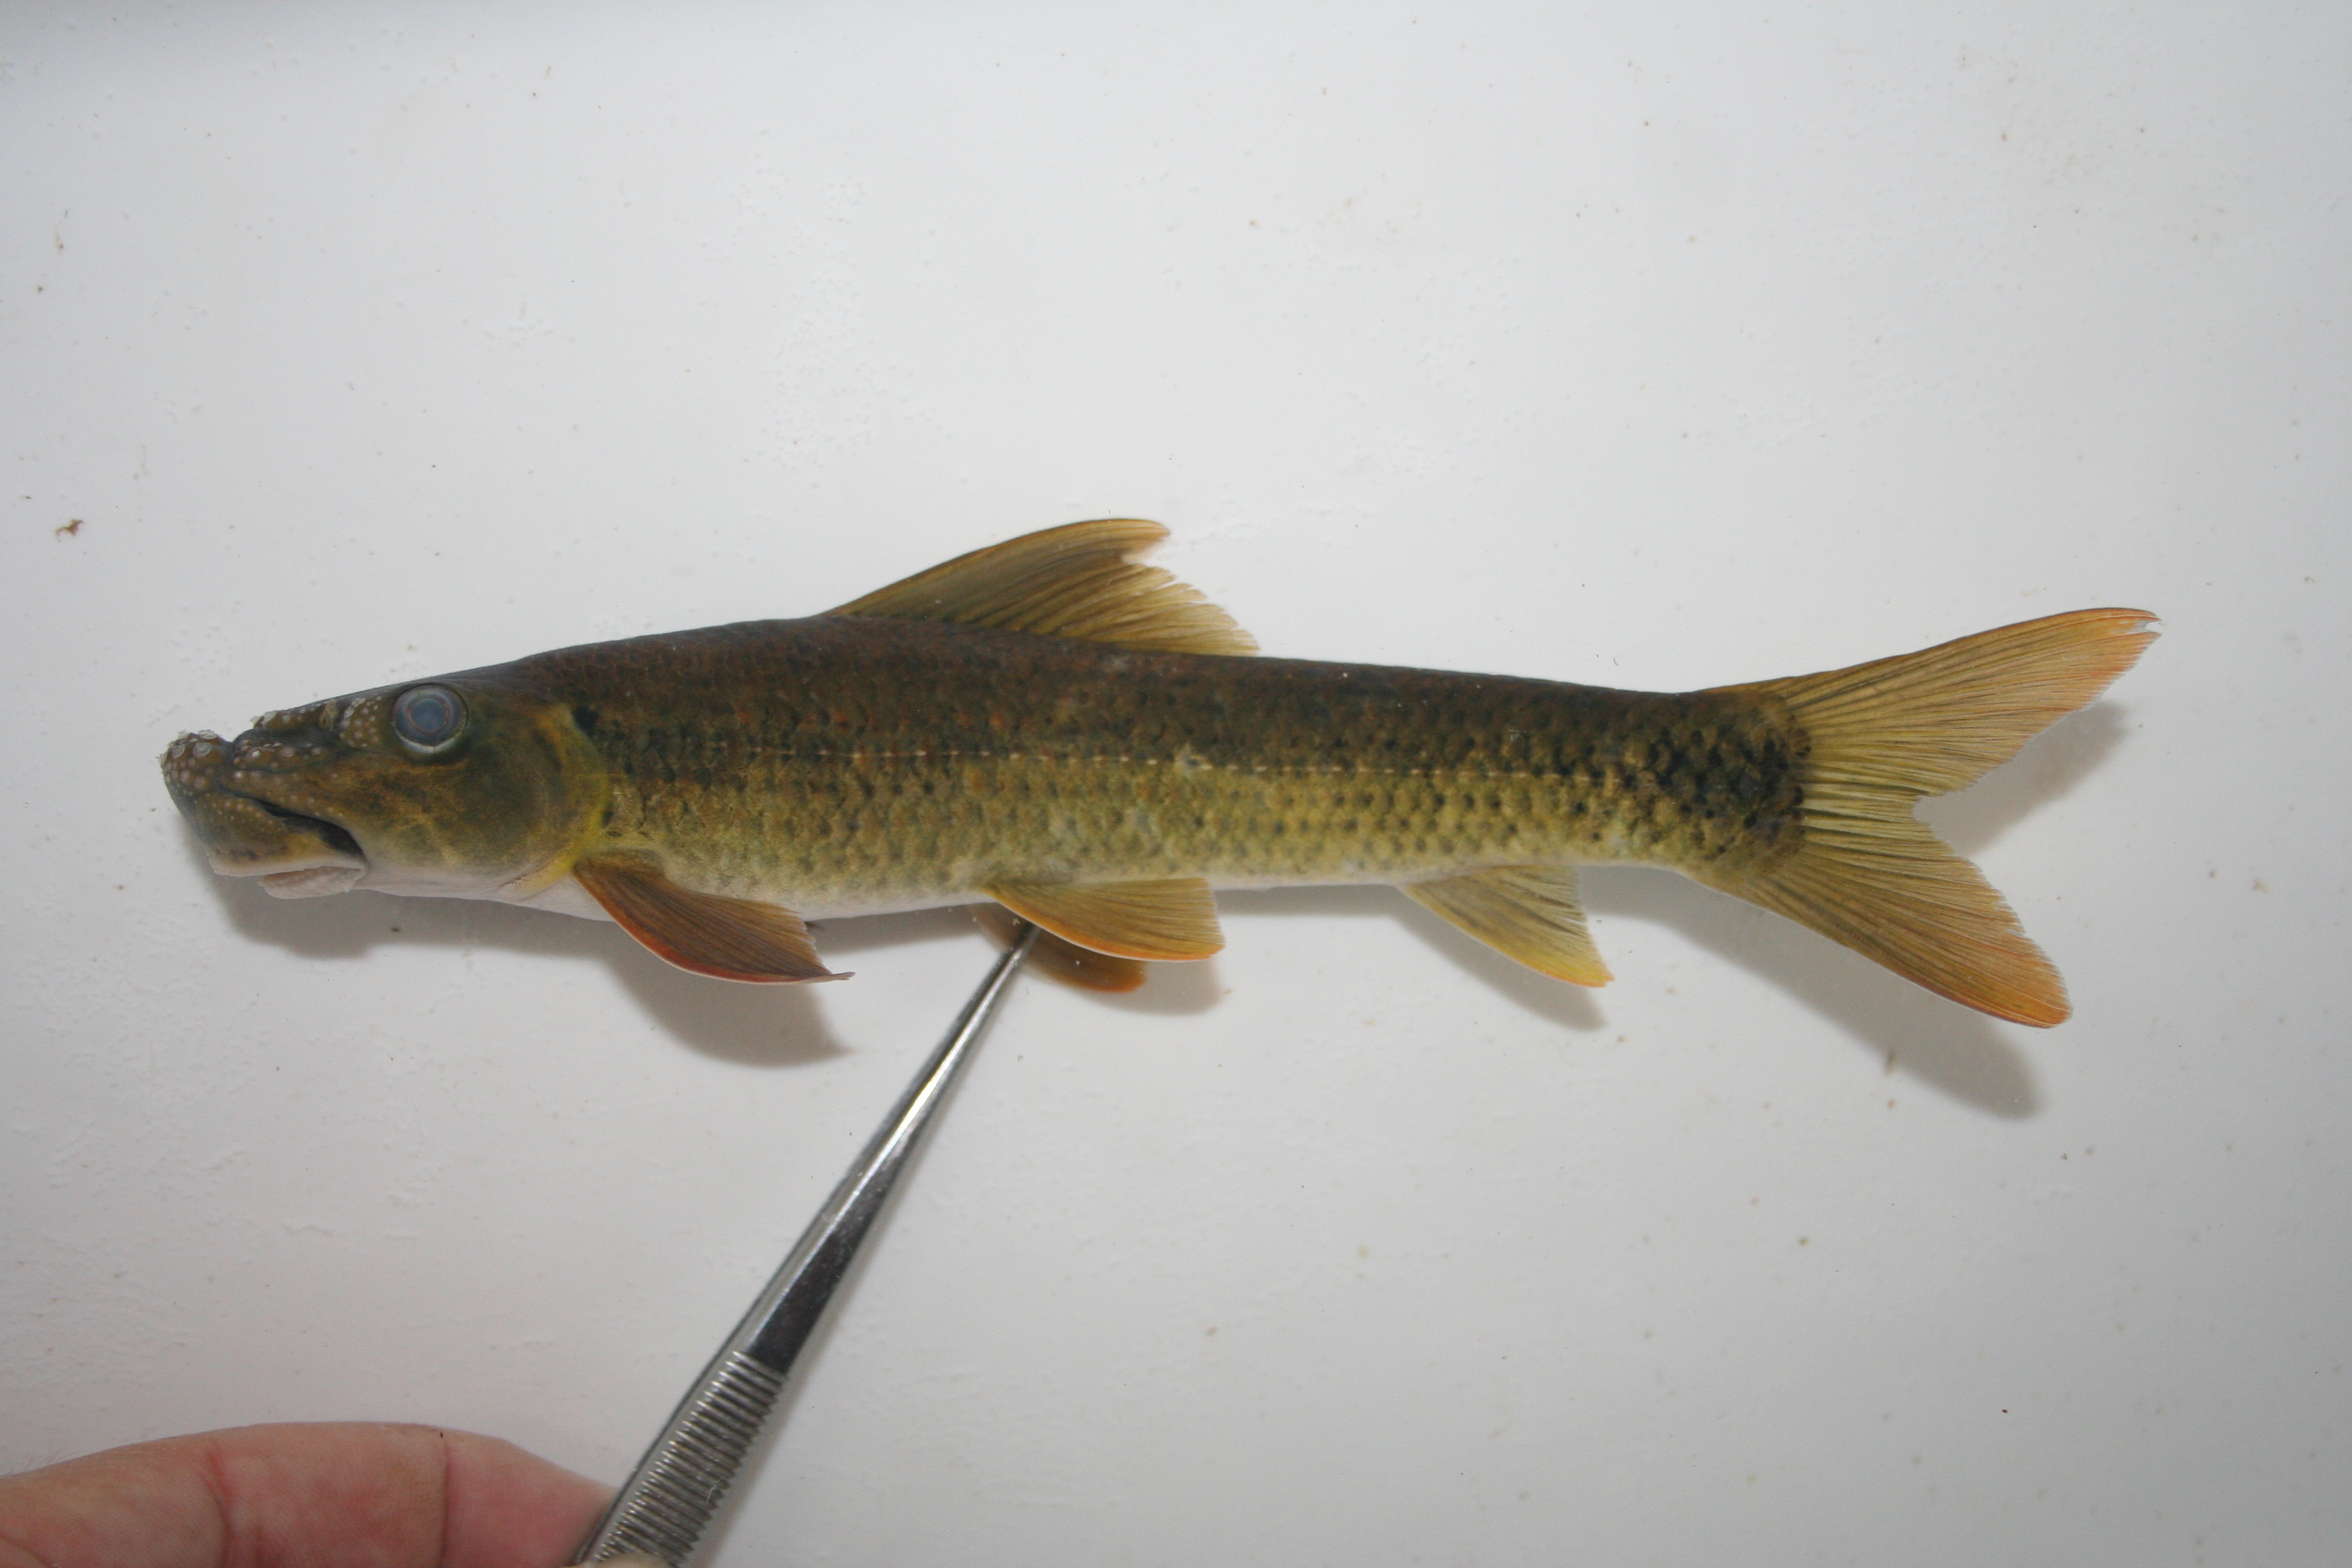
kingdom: Animalia
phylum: Chordata
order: Cypriniformes
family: Cyprinidae
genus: Labeo
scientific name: Labeo
